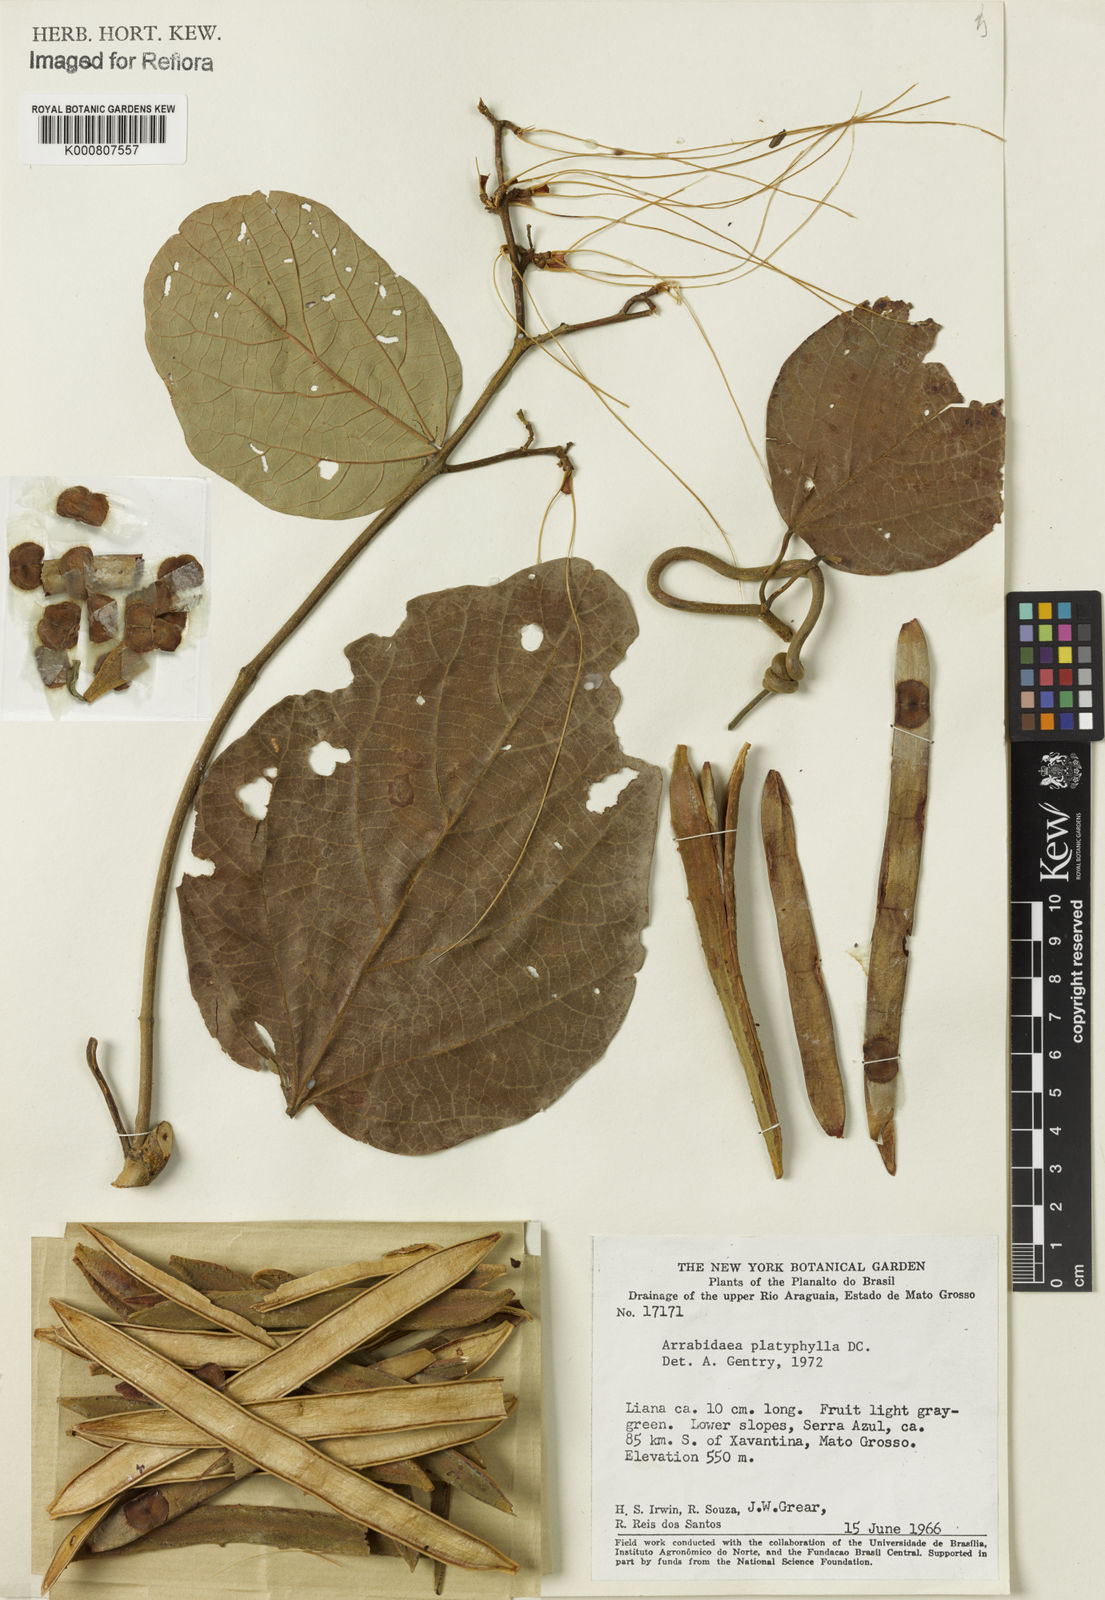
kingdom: Plantae
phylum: Tracheophyta
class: Magnoliopsida
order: Lamiales
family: Bignoniaceae
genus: Xylophragma
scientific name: Xylophragma platyphyllum
